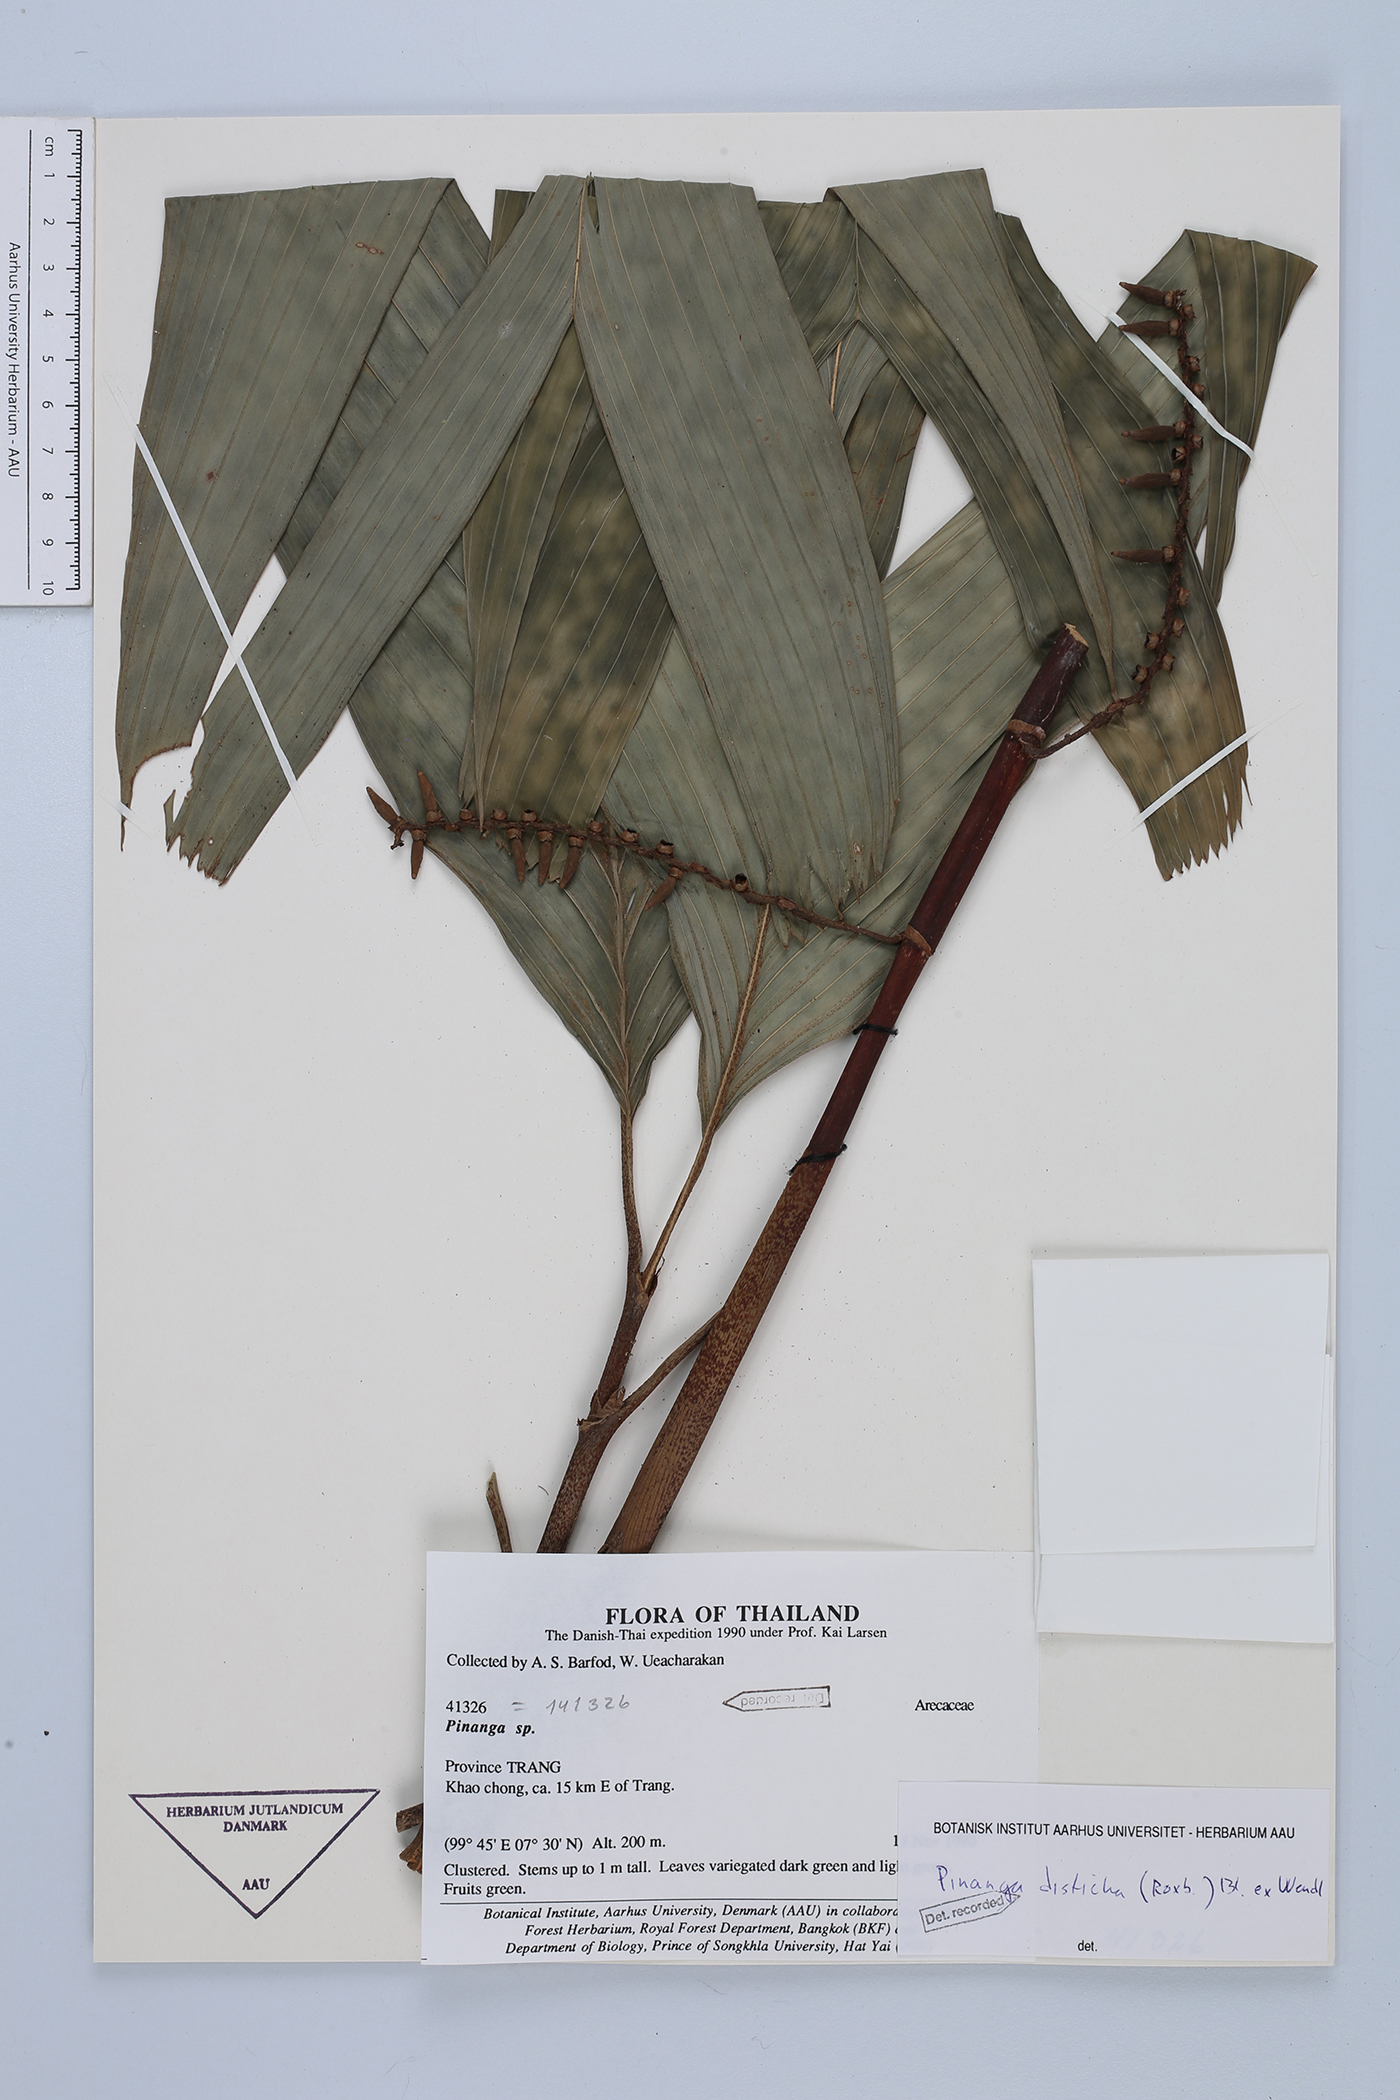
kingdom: Plantae
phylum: Tracheophyta
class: Liliopsida
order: Arecales
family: Arecaceae
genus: Pinanga
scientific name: Pinanga disticha
